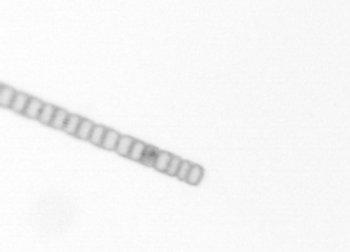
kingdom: Chromista
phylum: Ochrophyta
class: Bacillariophyceae
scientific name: Bacillariophyceae
